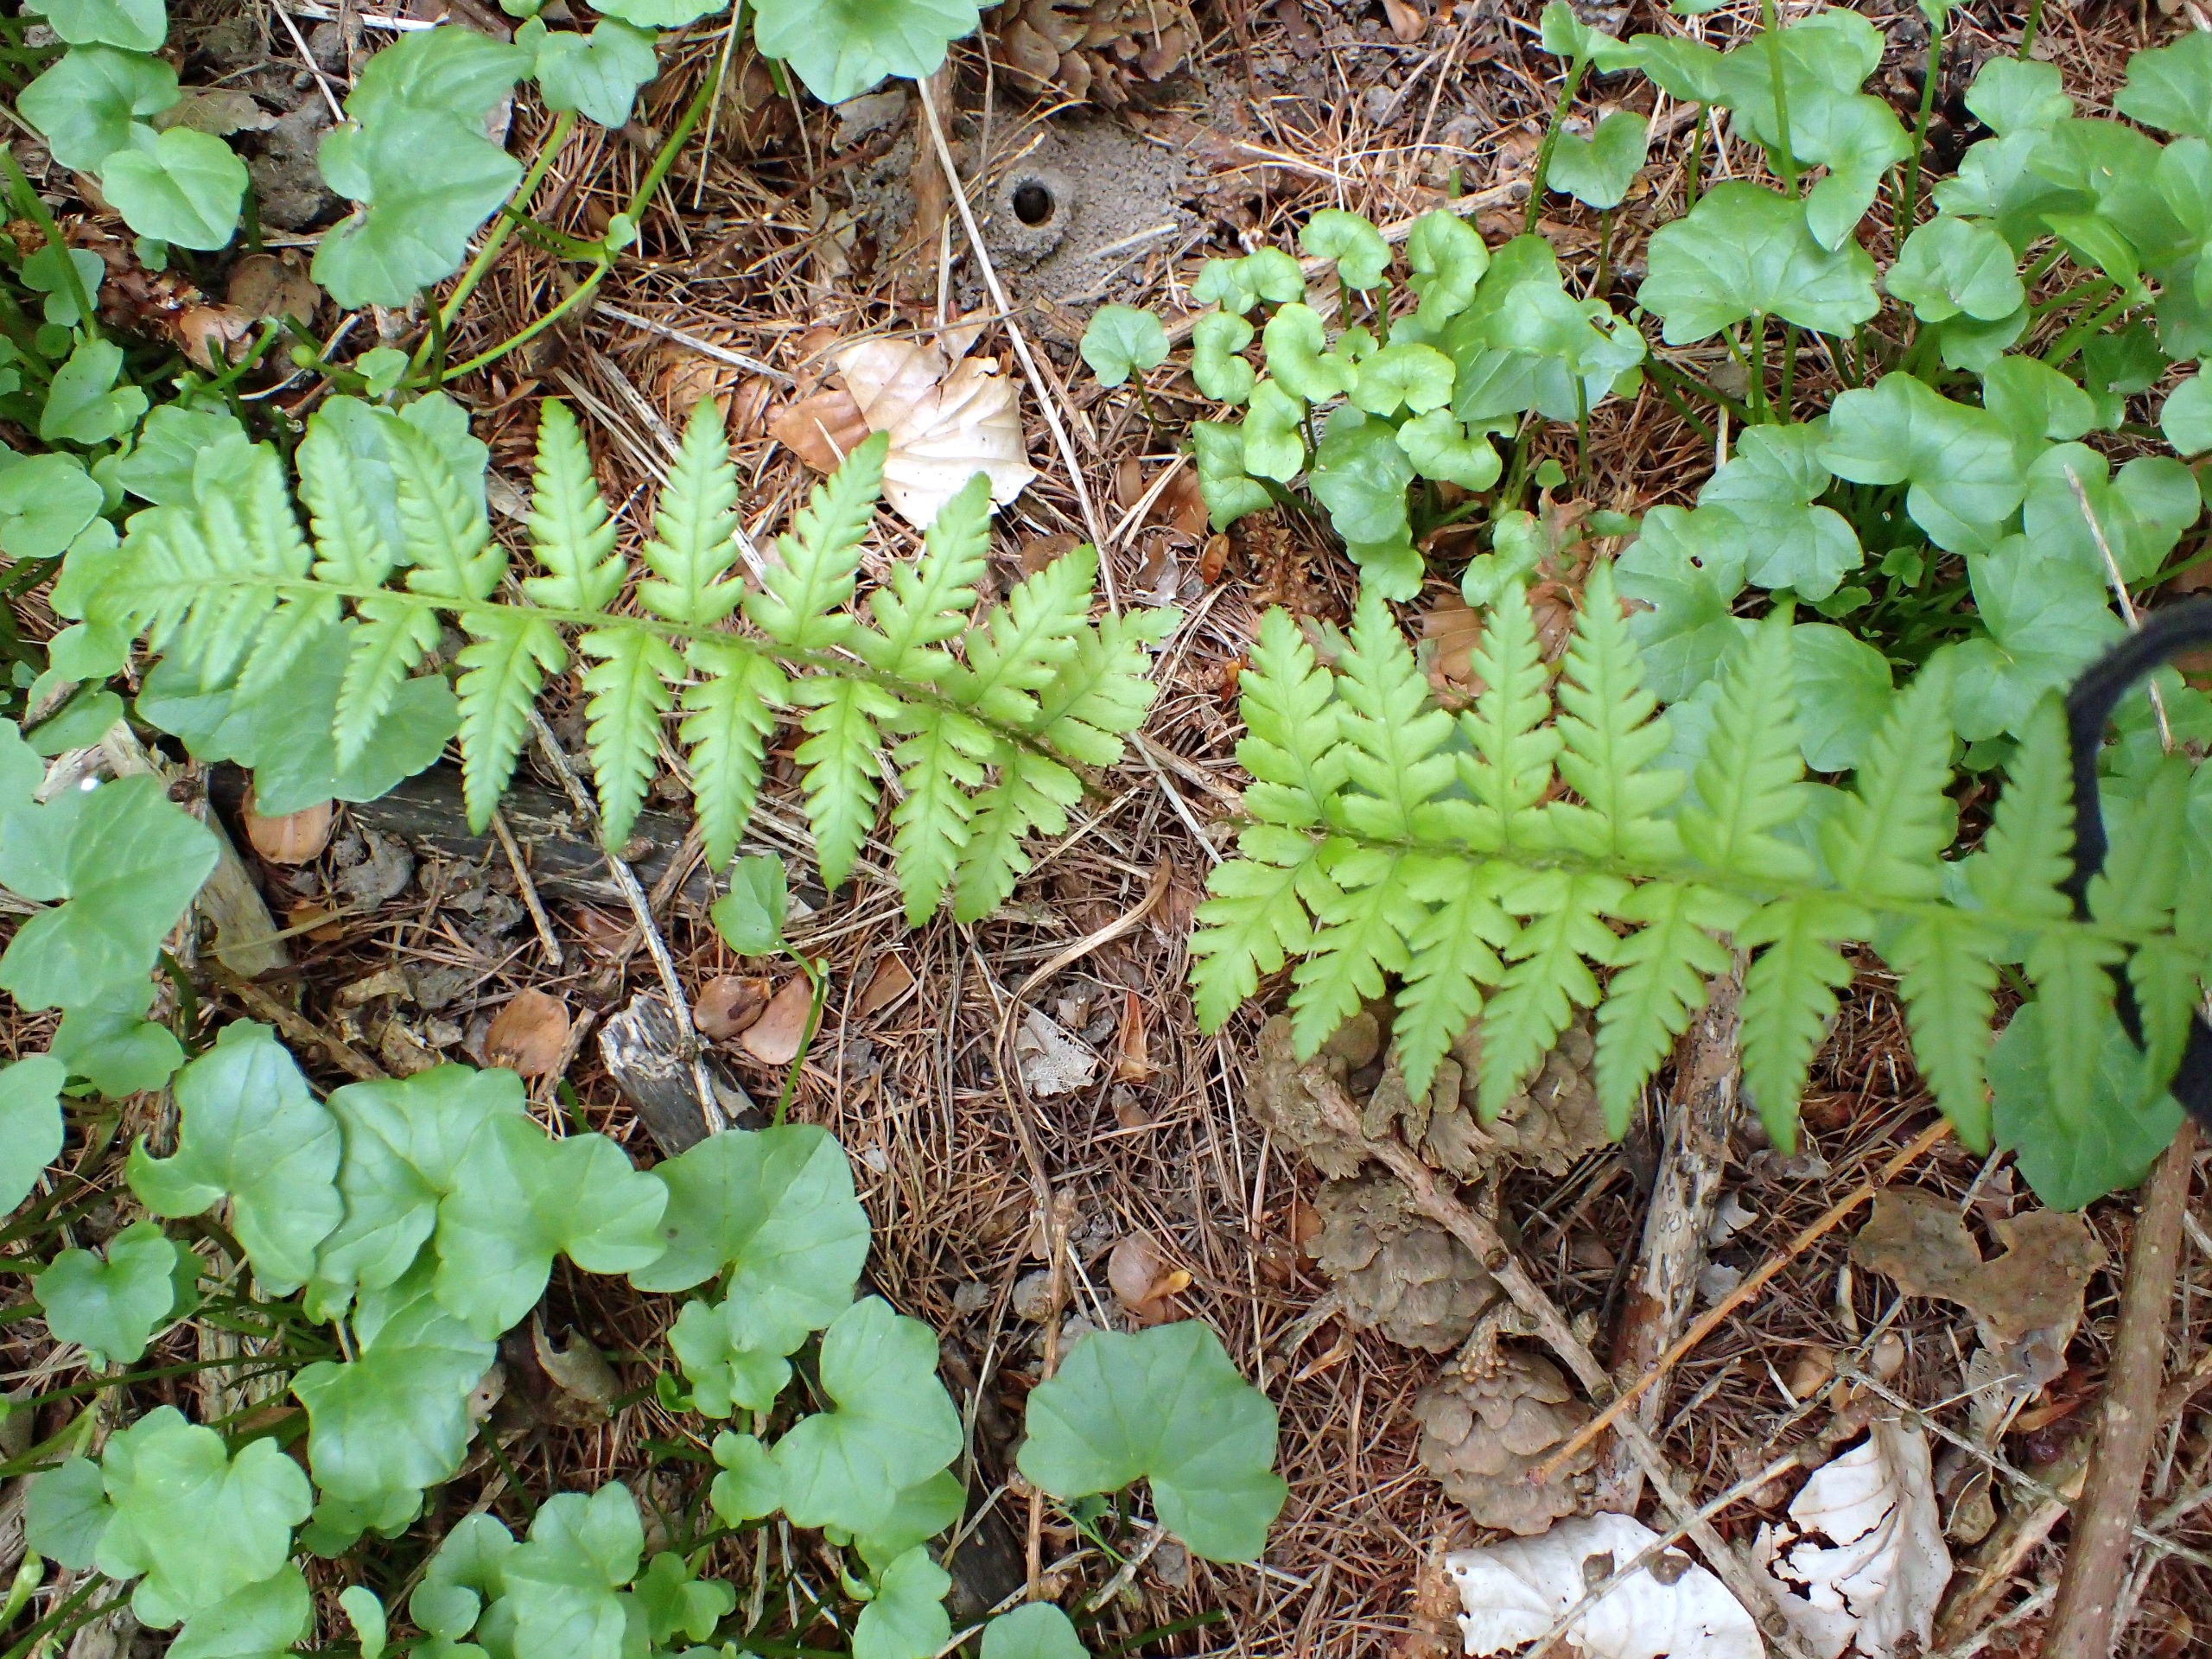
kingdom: Plantae
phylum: Tracheophyta
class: Polypodiopsida
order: Polypodiales
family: Dryopteridaceae
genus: Dryopteris
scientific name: Dryopteris filix-mas
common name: Almindelig mangeløv
